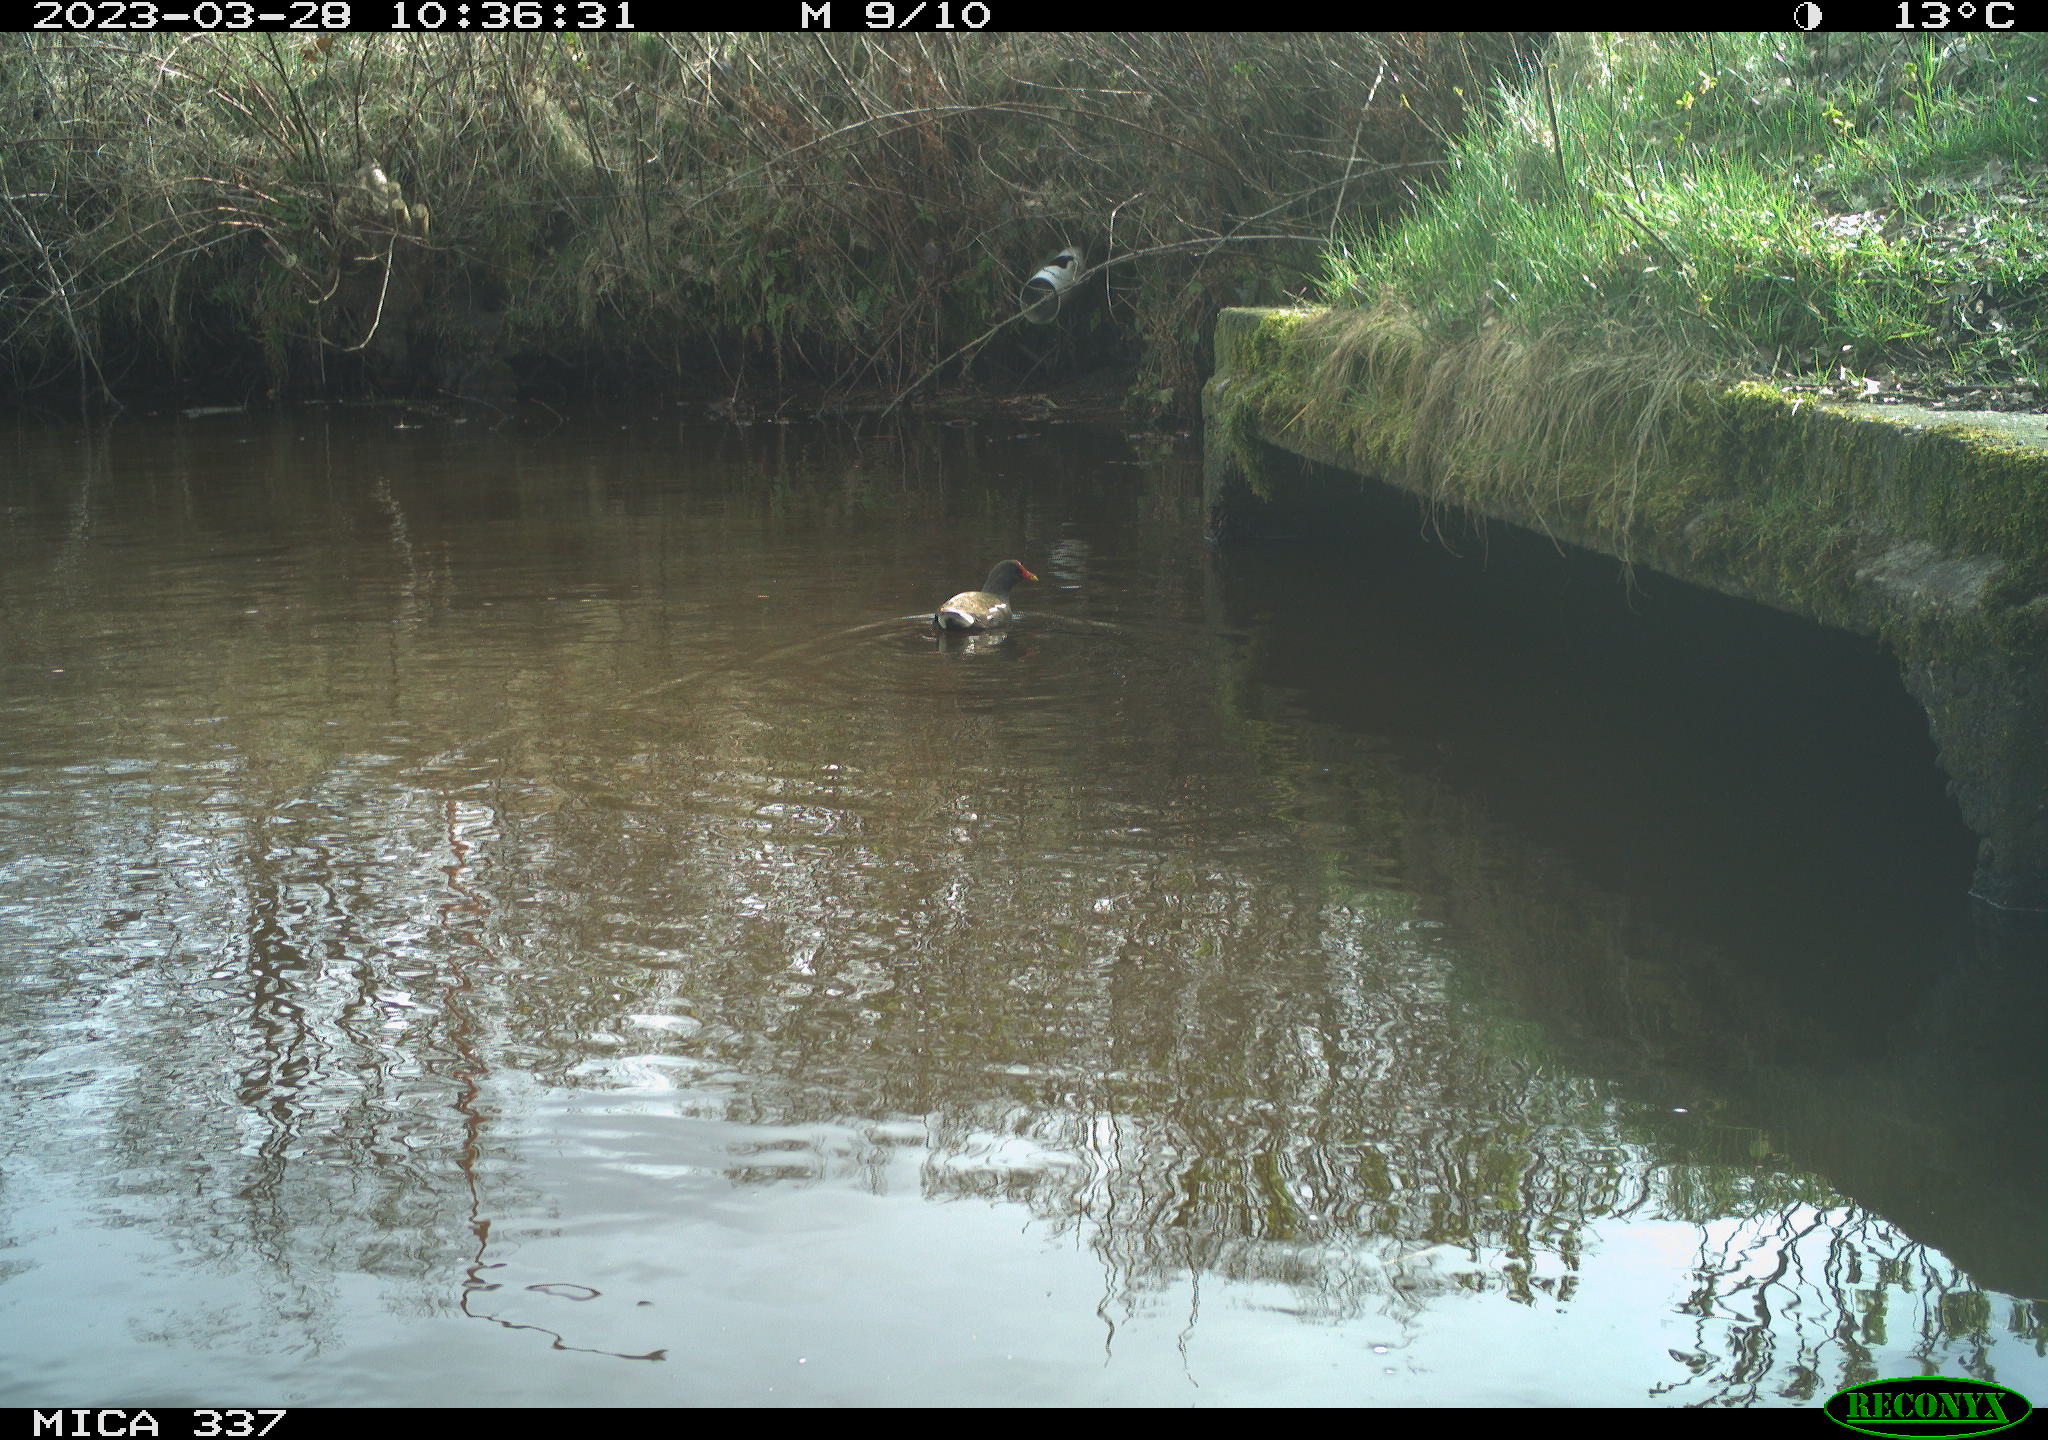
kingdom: Animalia
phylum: Chordata
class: Aves
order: Gruiformes
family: Rallidae
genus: Gallinula
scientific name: Gallinula chloropus
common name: Common moorhen
